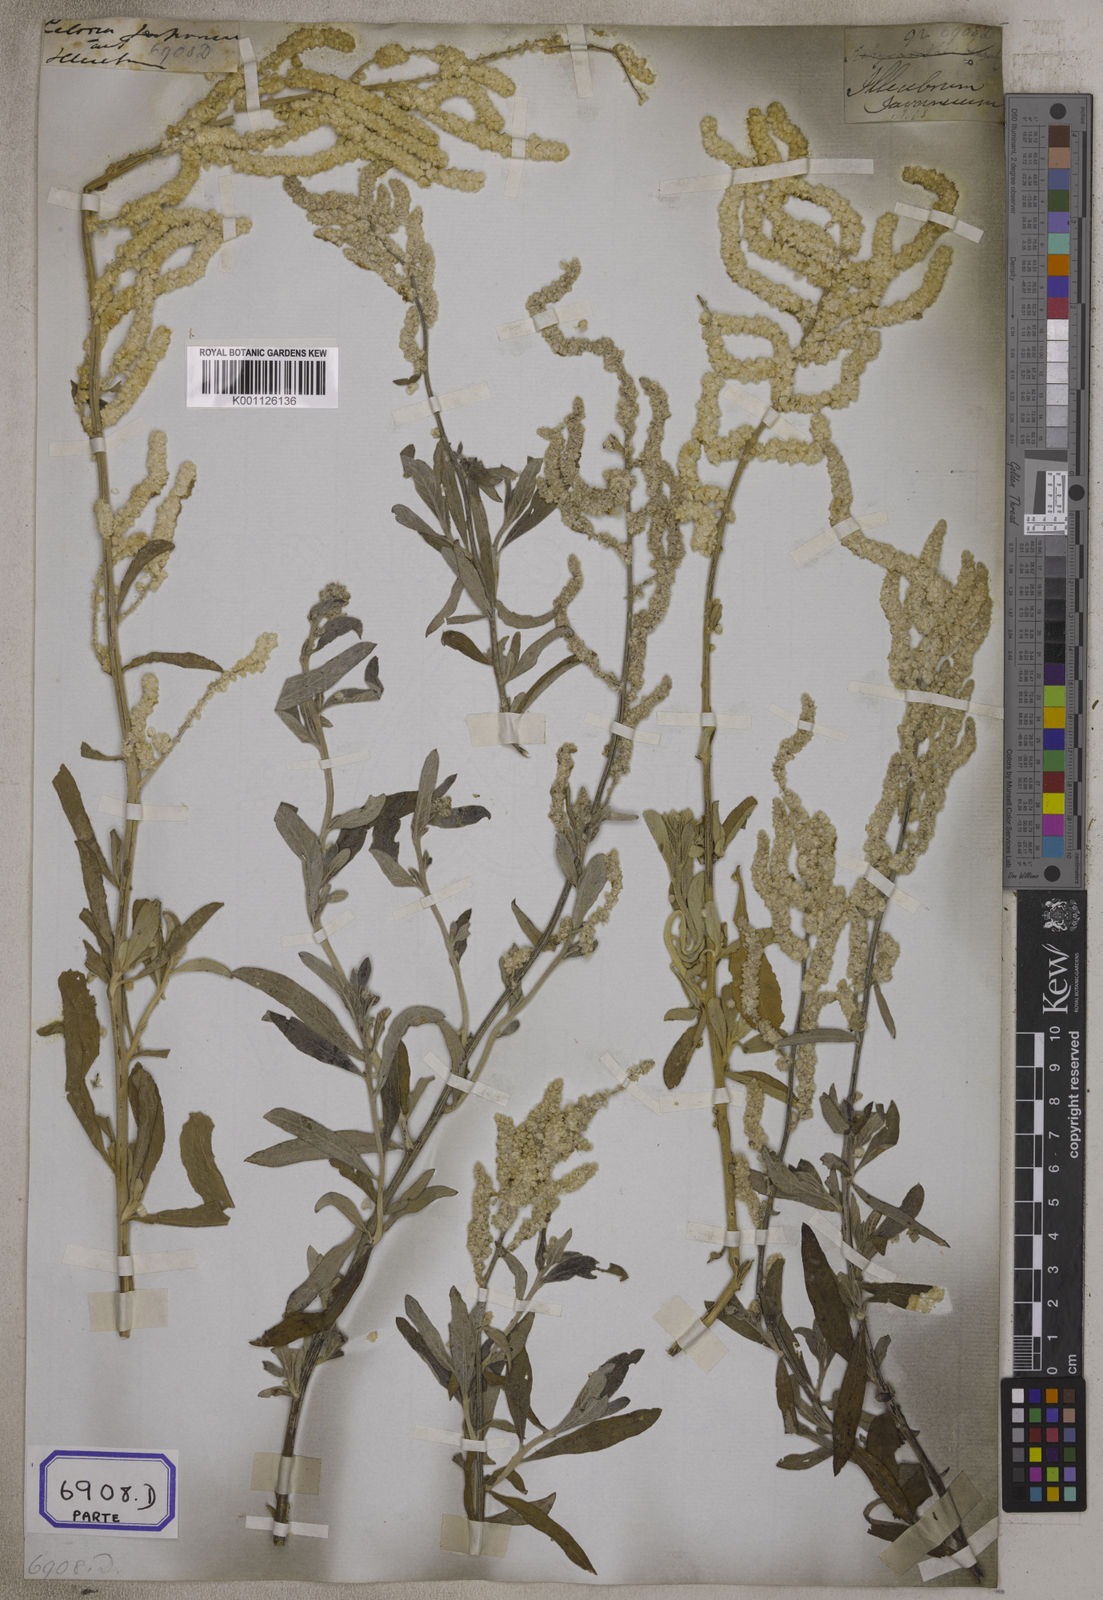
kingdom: Plantae
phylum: Tracheophyta
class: Magnoliopsida
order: Caryophyllales
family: Amaranthaceae
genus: Aerva
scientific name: Aerva
